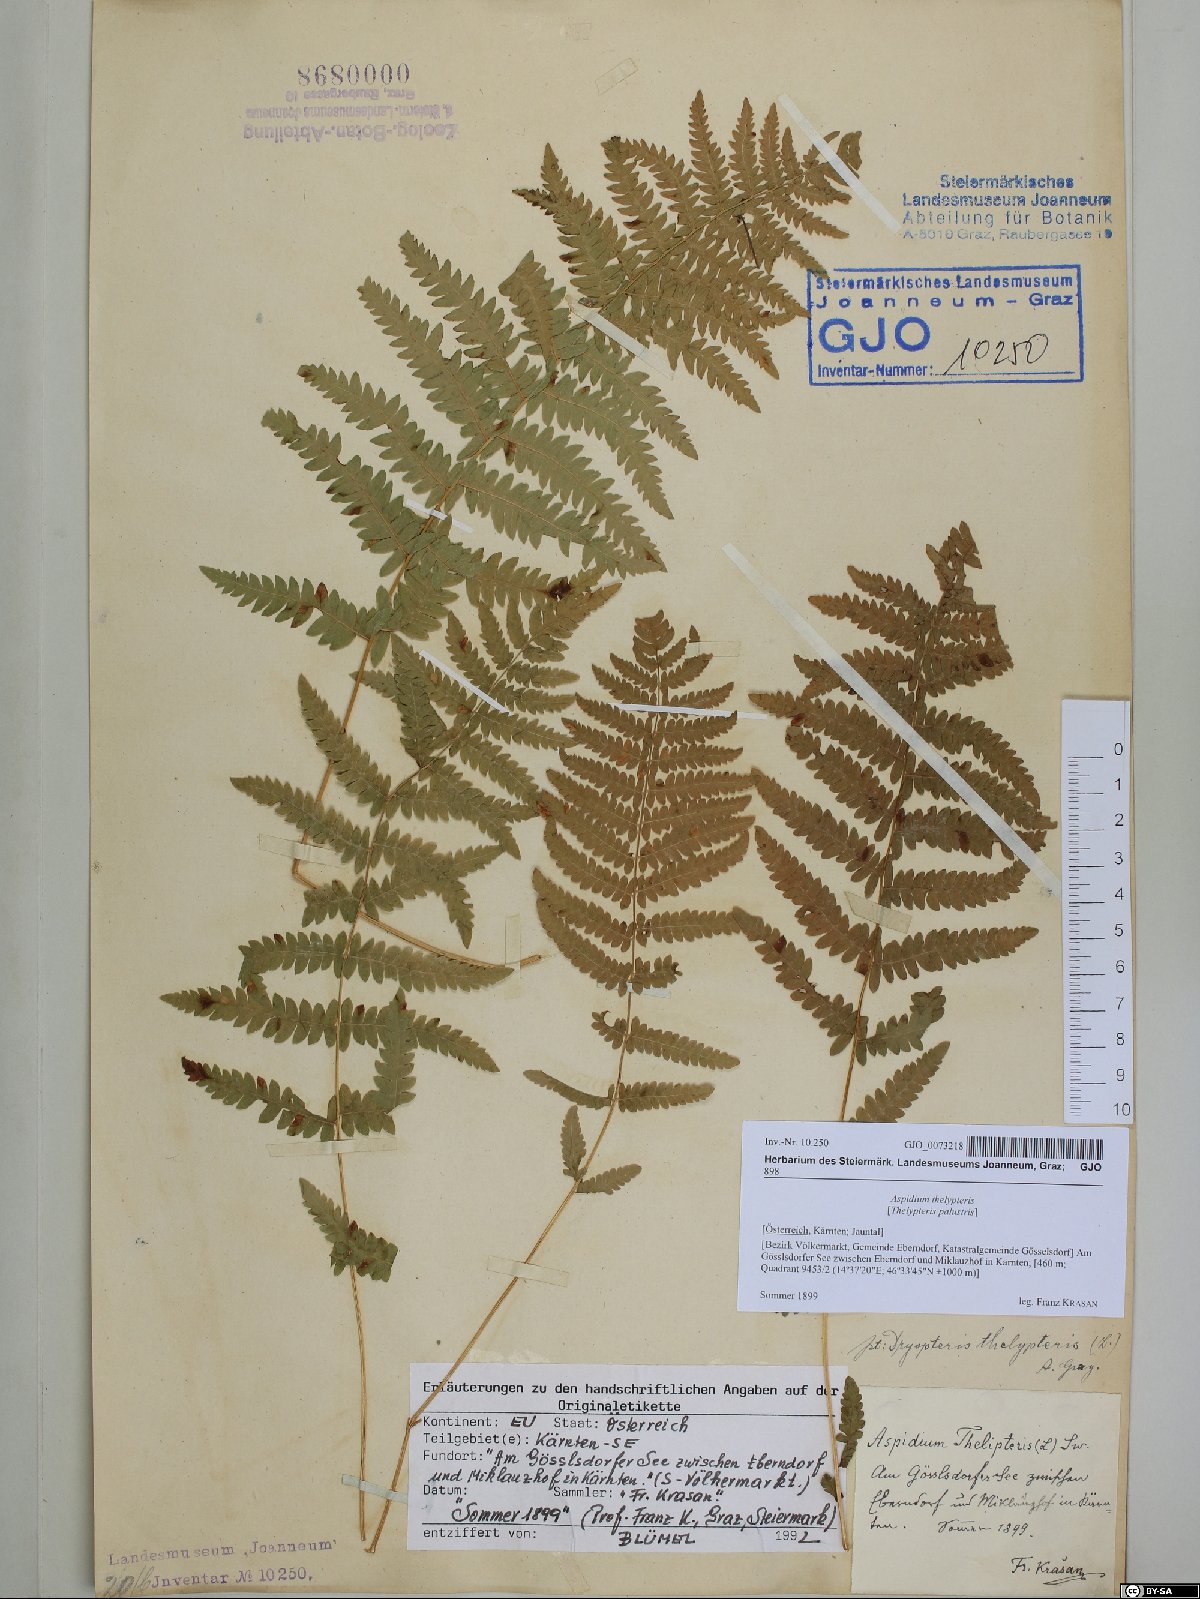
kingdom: Plantae
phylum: Tracheophyta
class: Polypodiopsida
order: Polypodiales
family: Thelypteridaceae
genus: Thelypteris
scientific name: Thelypteris palustris
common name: Marsh fern
